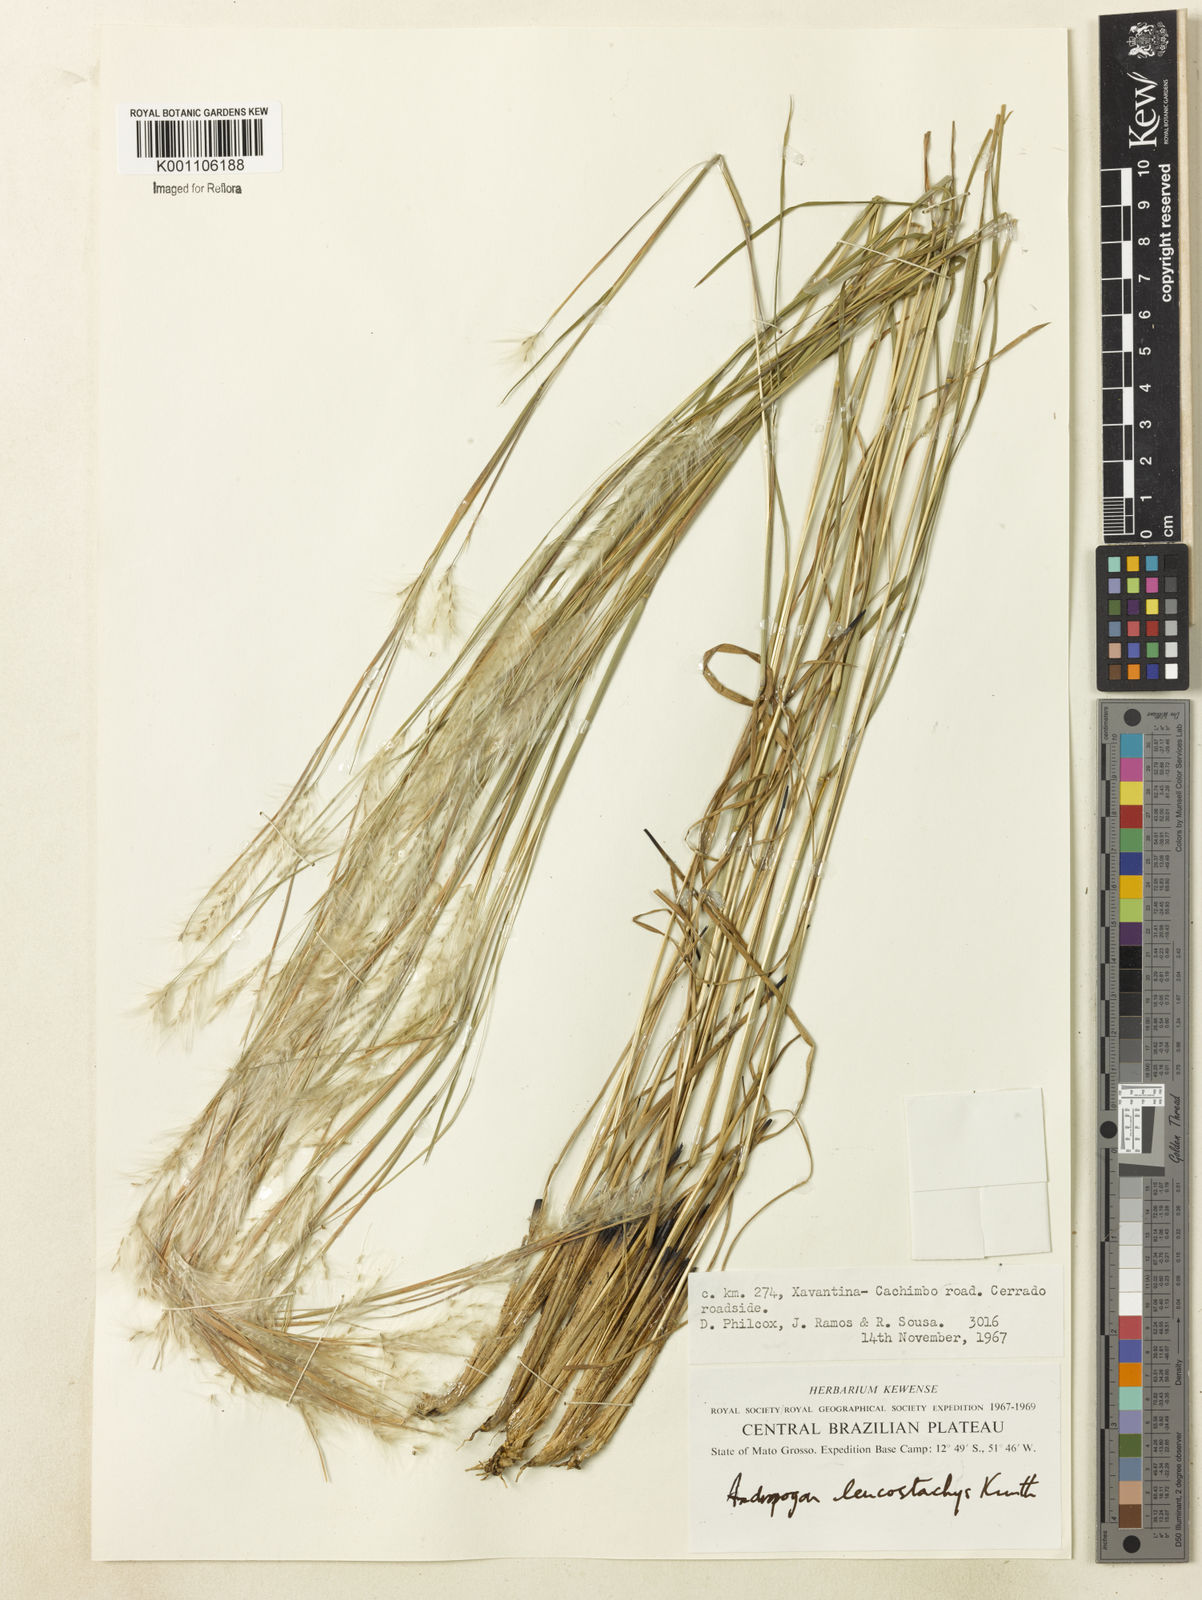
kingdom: Plantae
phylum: Tracheophyta
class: Liliopsida
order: Poales
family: Poaceae
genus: Andropogon
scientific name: Andropogon leucostachyus
